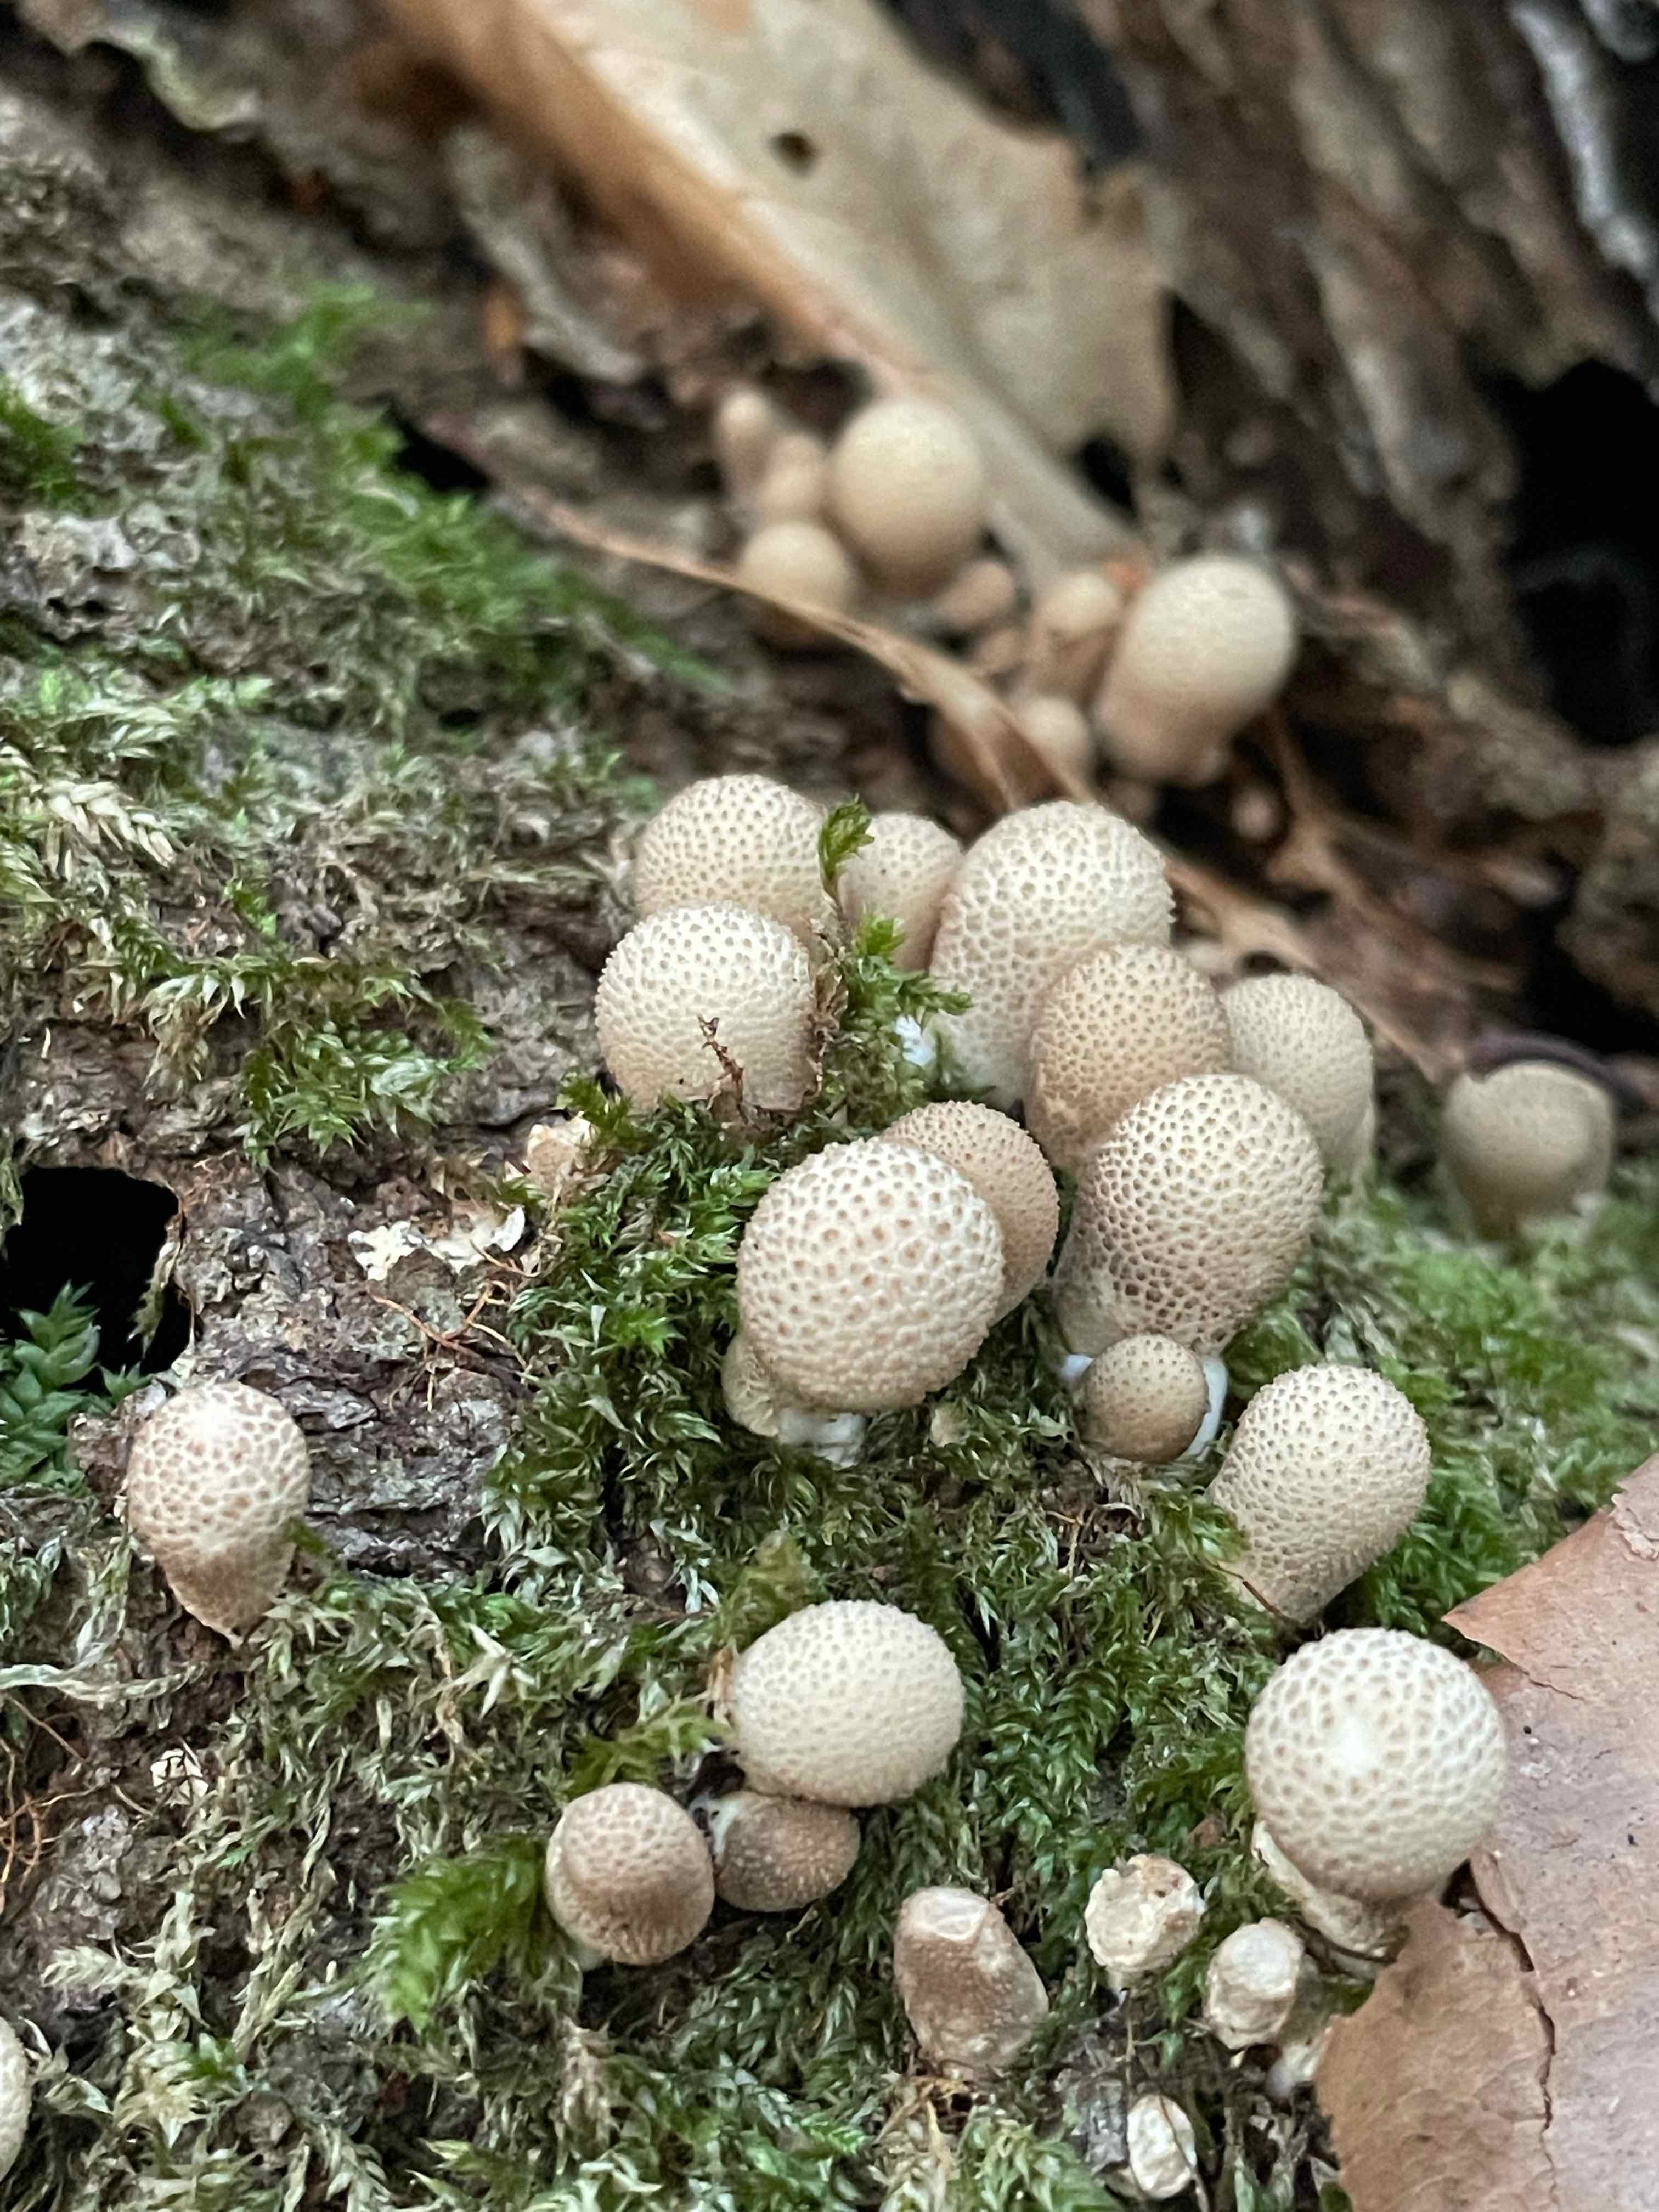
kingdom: Fungi
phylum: Basidiomycota
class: Agaricomycetes
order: Agaricales
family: Lycoperdaceae
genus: Apioperdon
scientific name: Apioperdon pyriforme
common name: pære-støvbold
